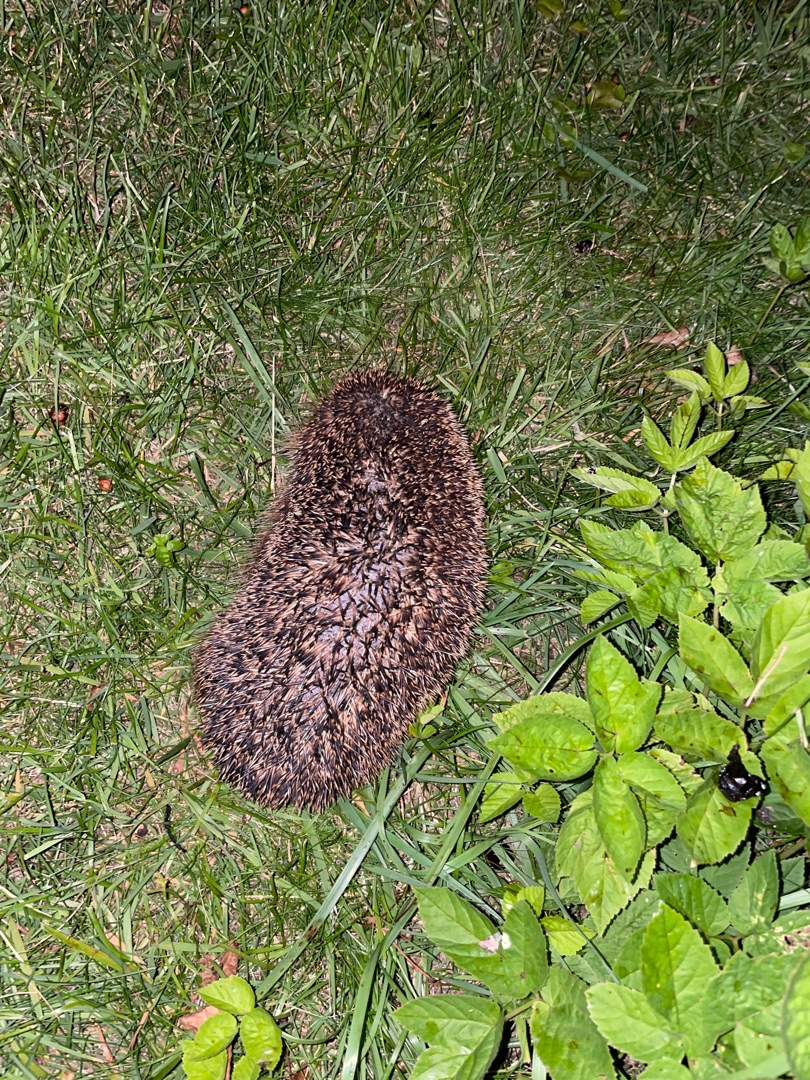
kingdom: Animalia
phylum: Chordata
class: Mammalia
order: Erinaceomorpha
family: Erinaceidae
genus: Erinaceus
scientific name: Erinaceus europaeus
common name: Pindsvin
